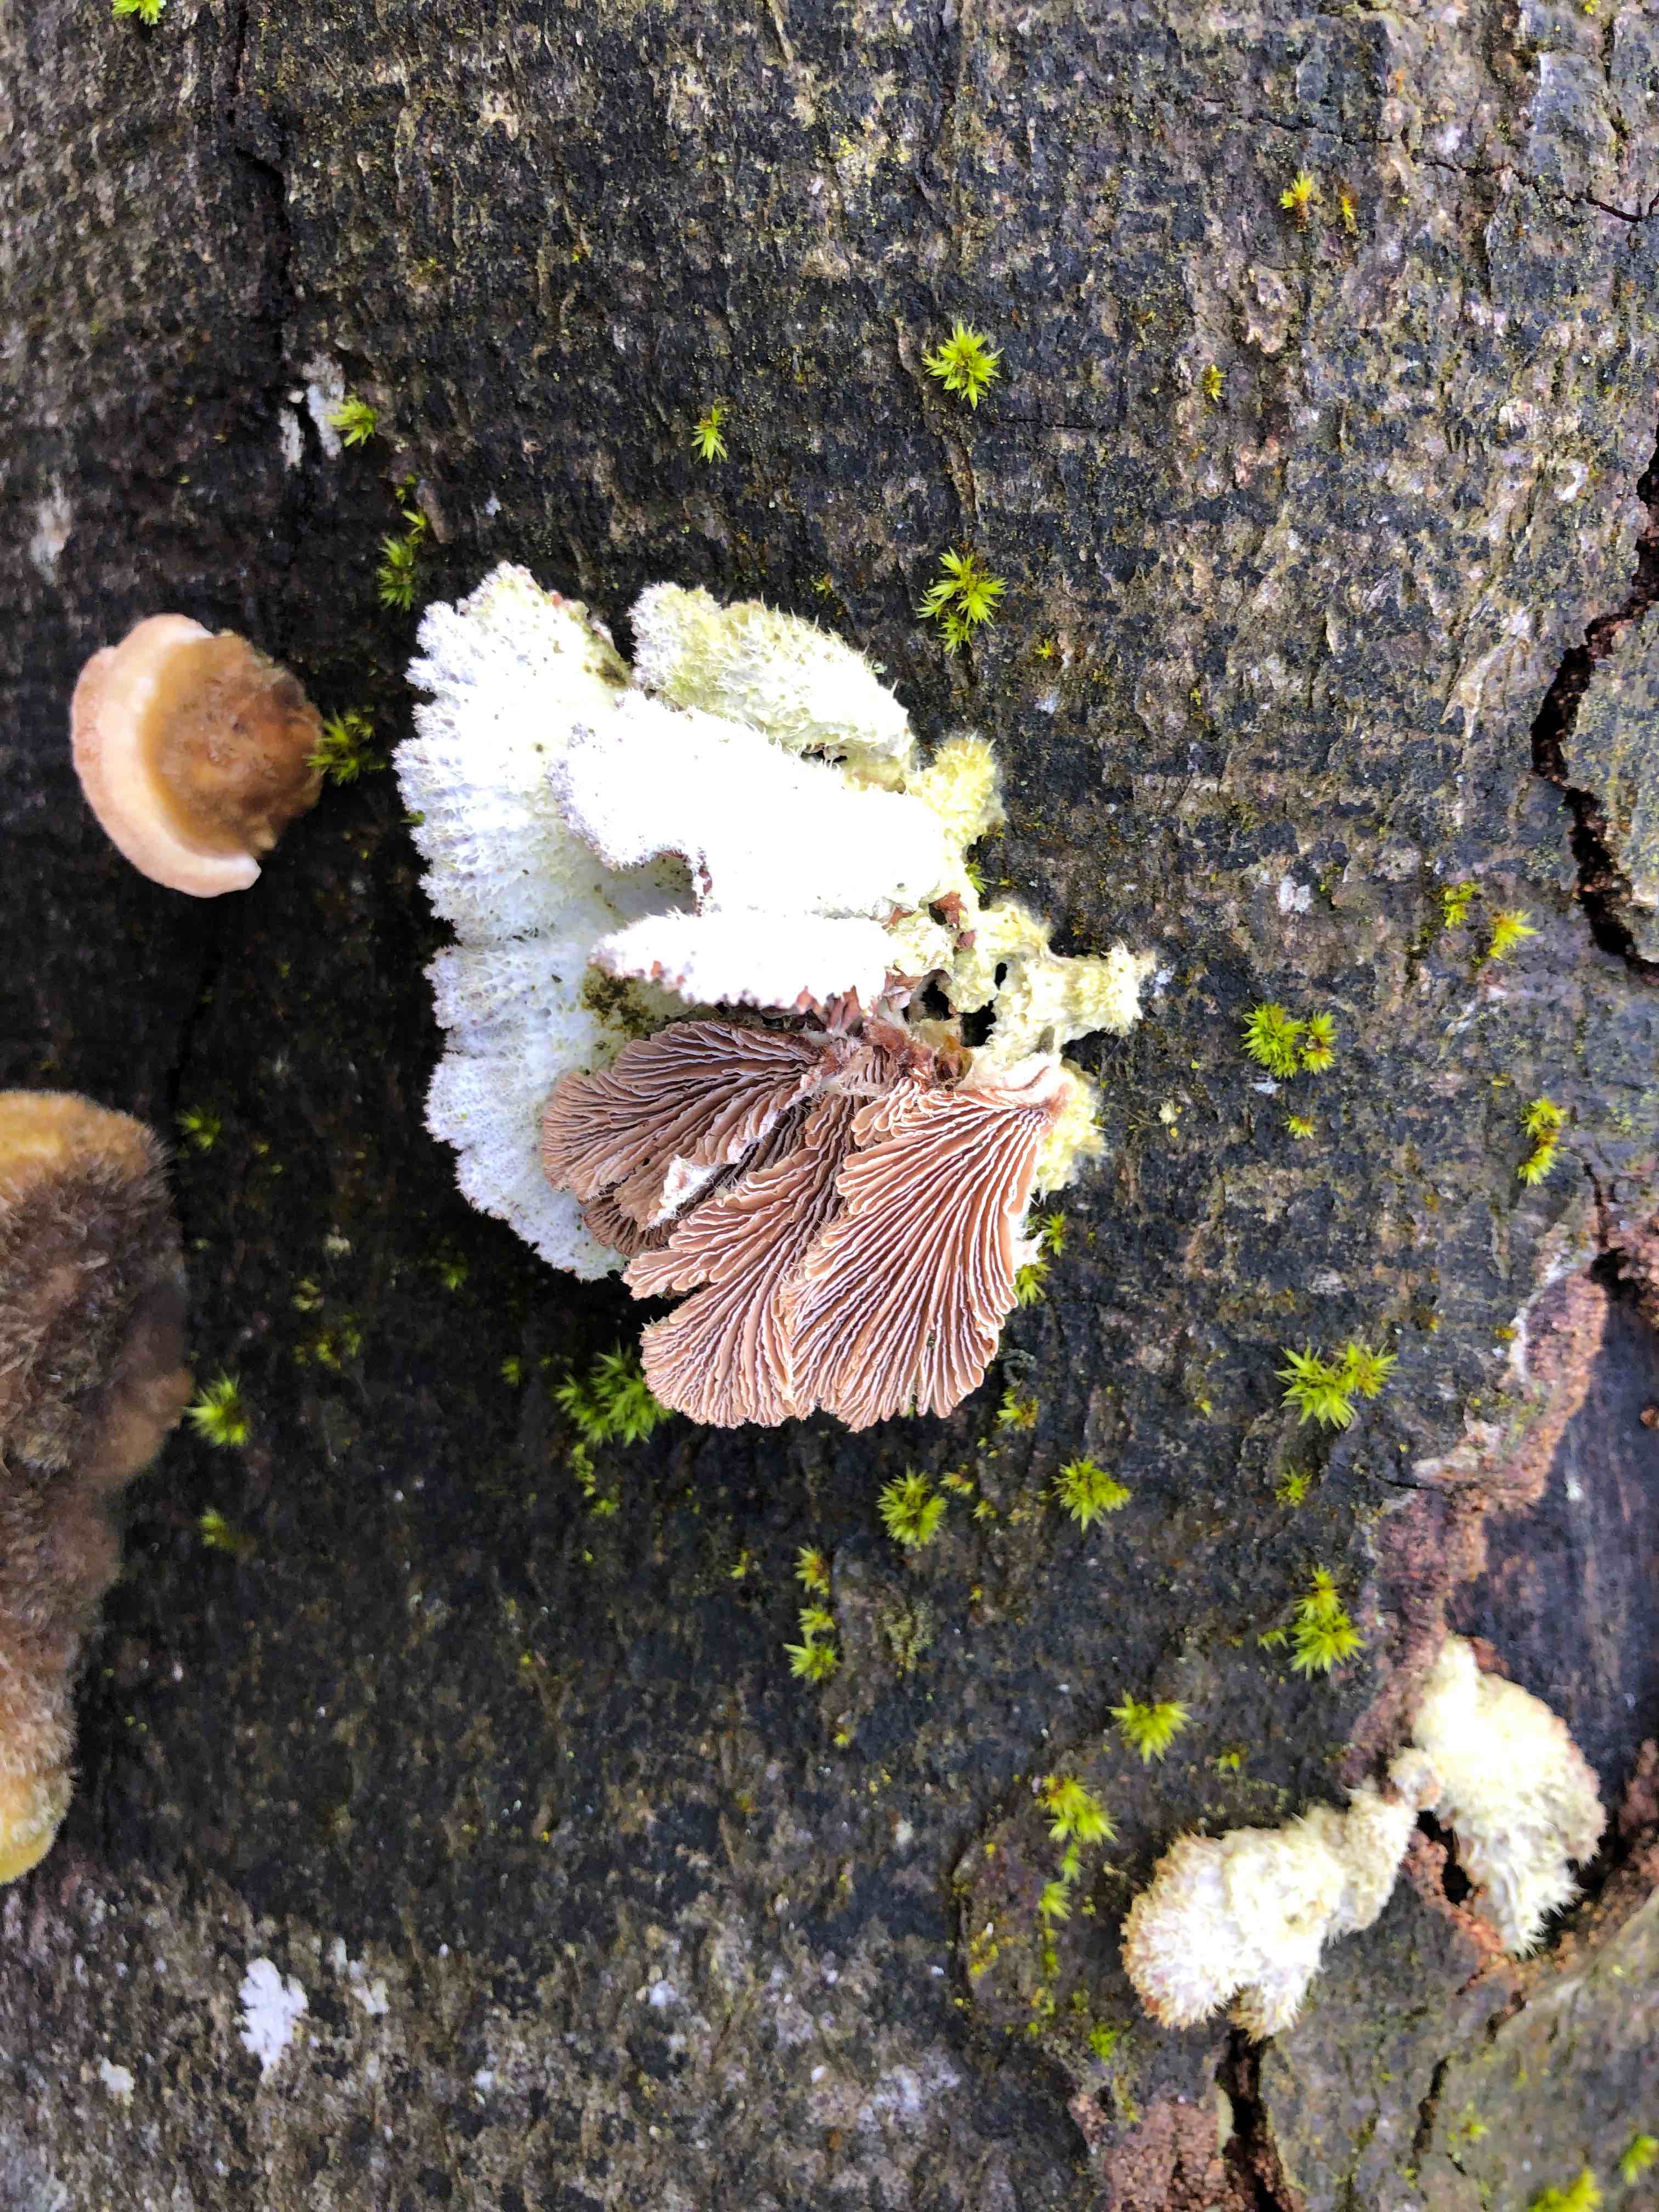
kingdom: Fungi
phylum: Basidiomycota
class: Agaricomycetes
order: Agaricales
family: Schizophyllaceae
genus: Schizophyllum
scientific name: Schizophyllum commune
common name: kløvblad
